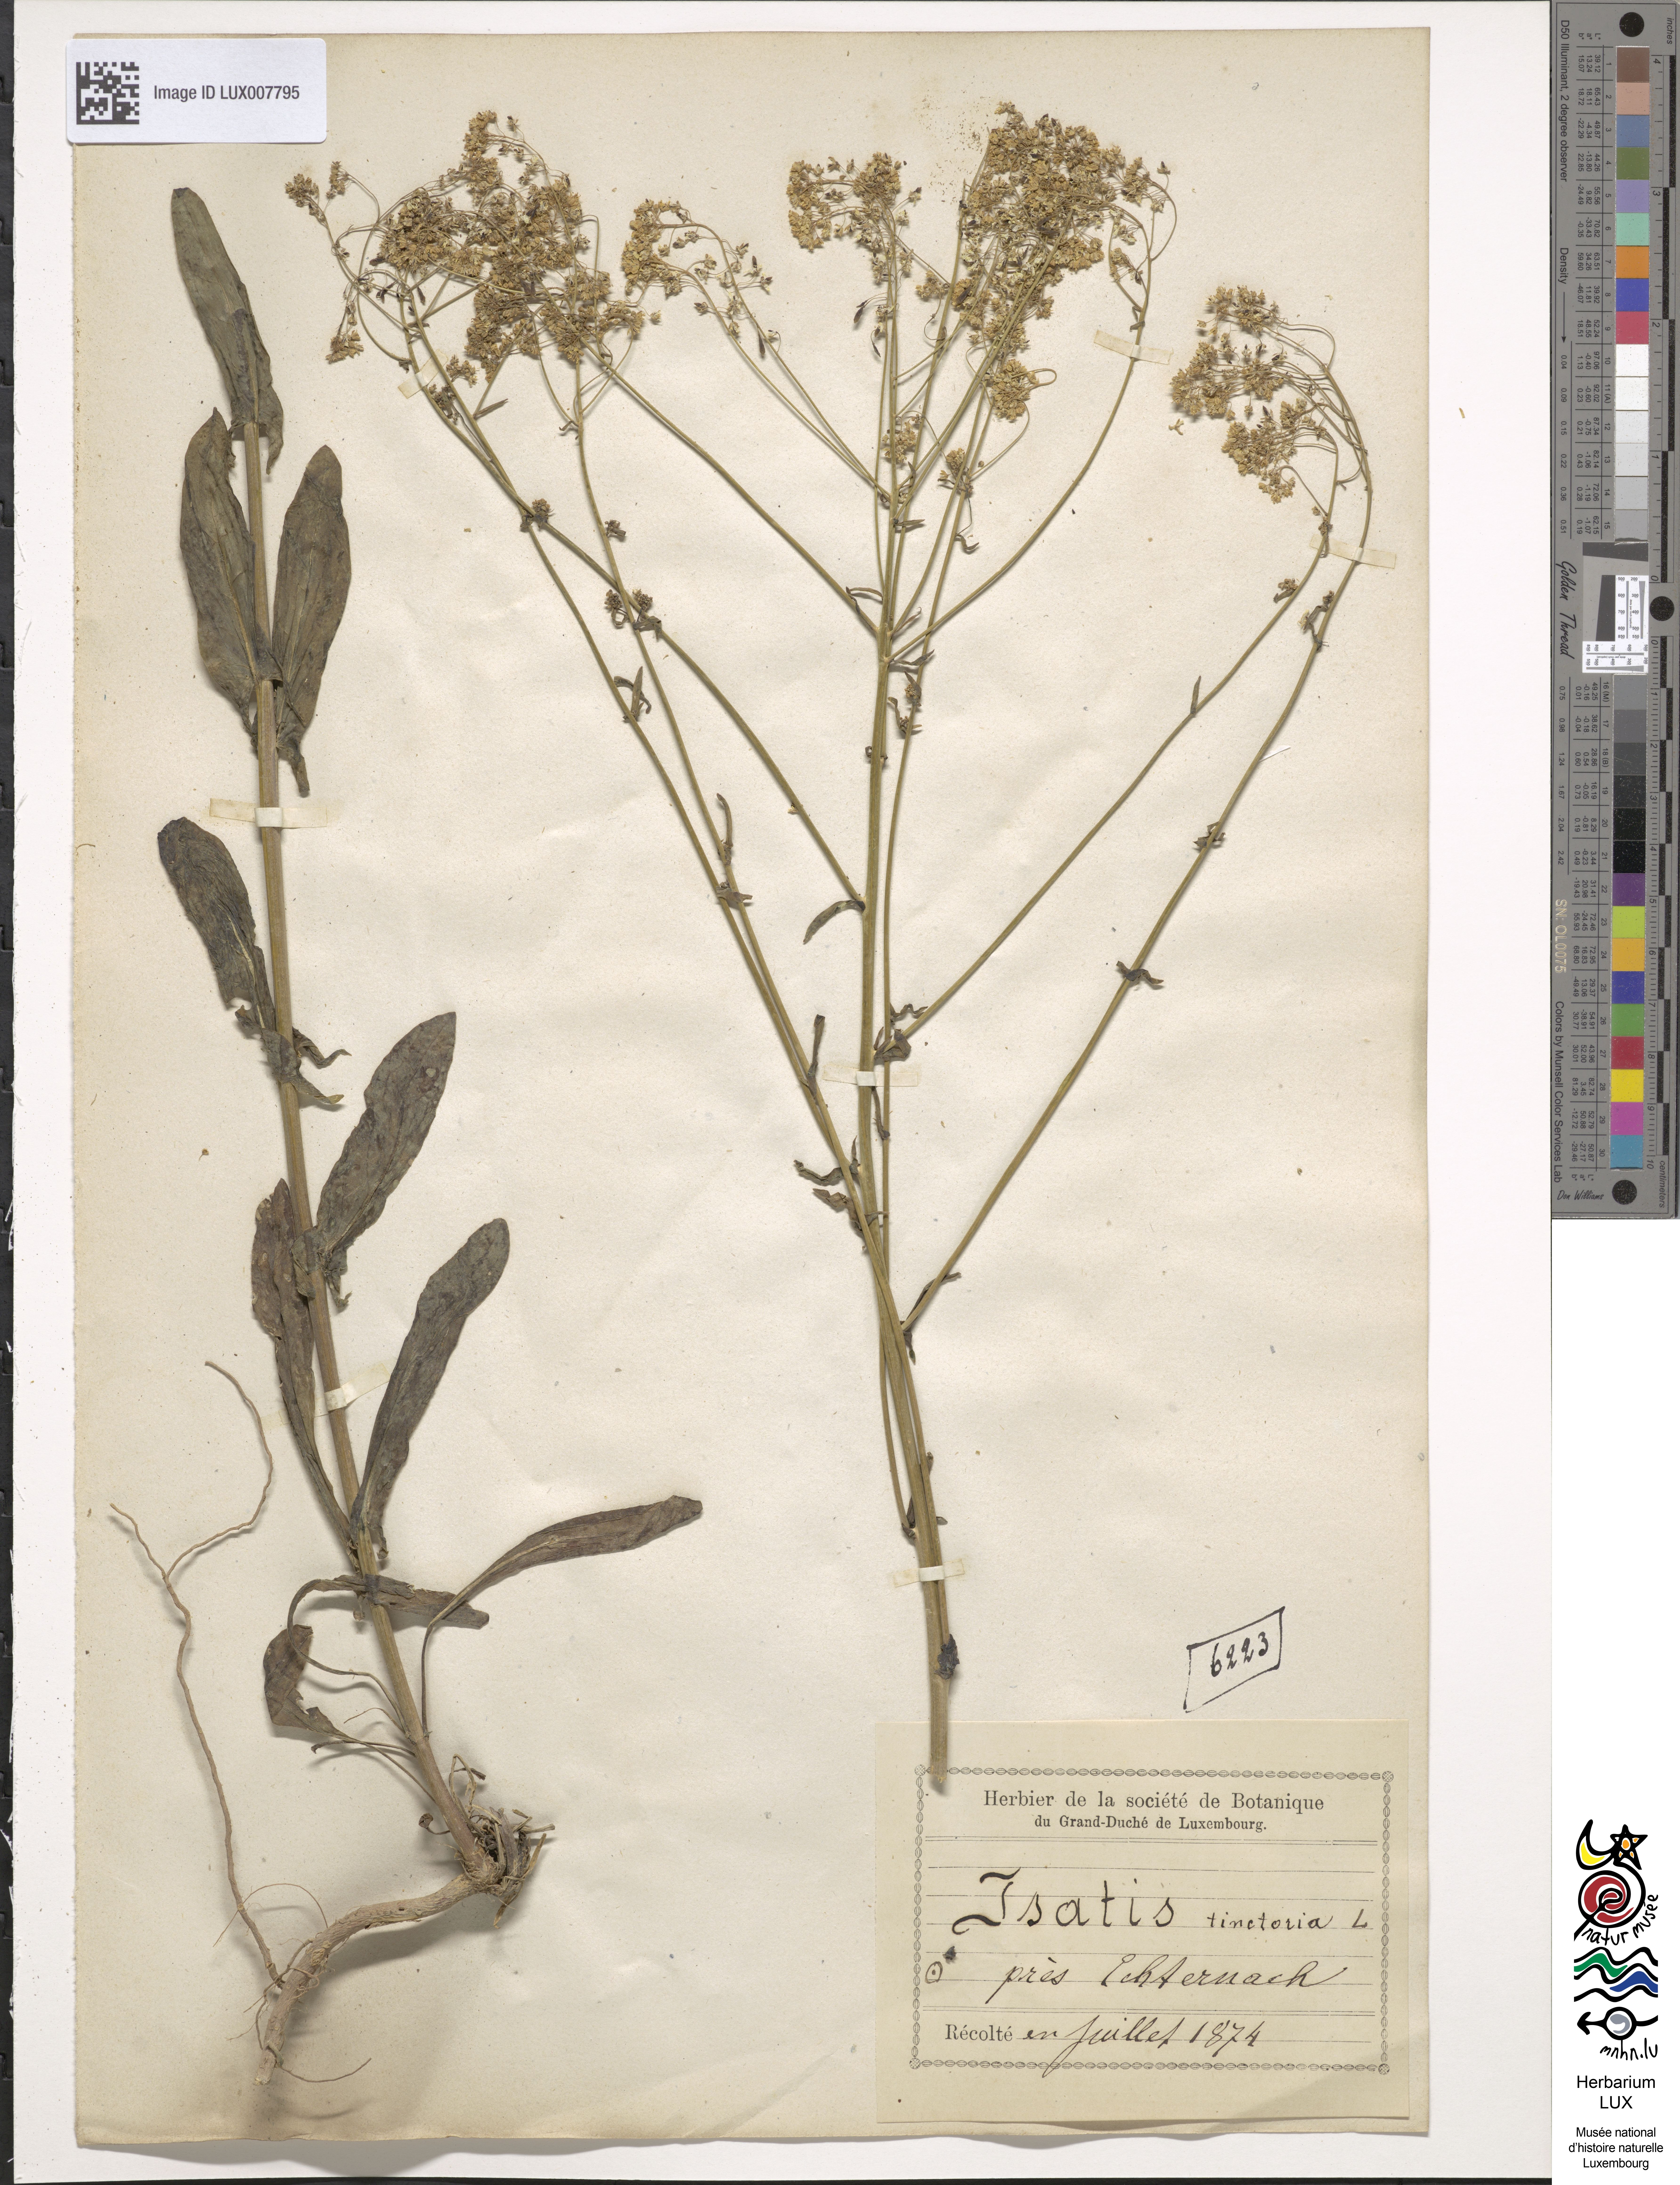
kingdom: Plantae
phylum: Tracheophyta
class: Magnoliopsida
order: Brassicales
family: Brassicaceae
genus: Isatis
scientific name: Isatis tinctoria
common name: Woad
